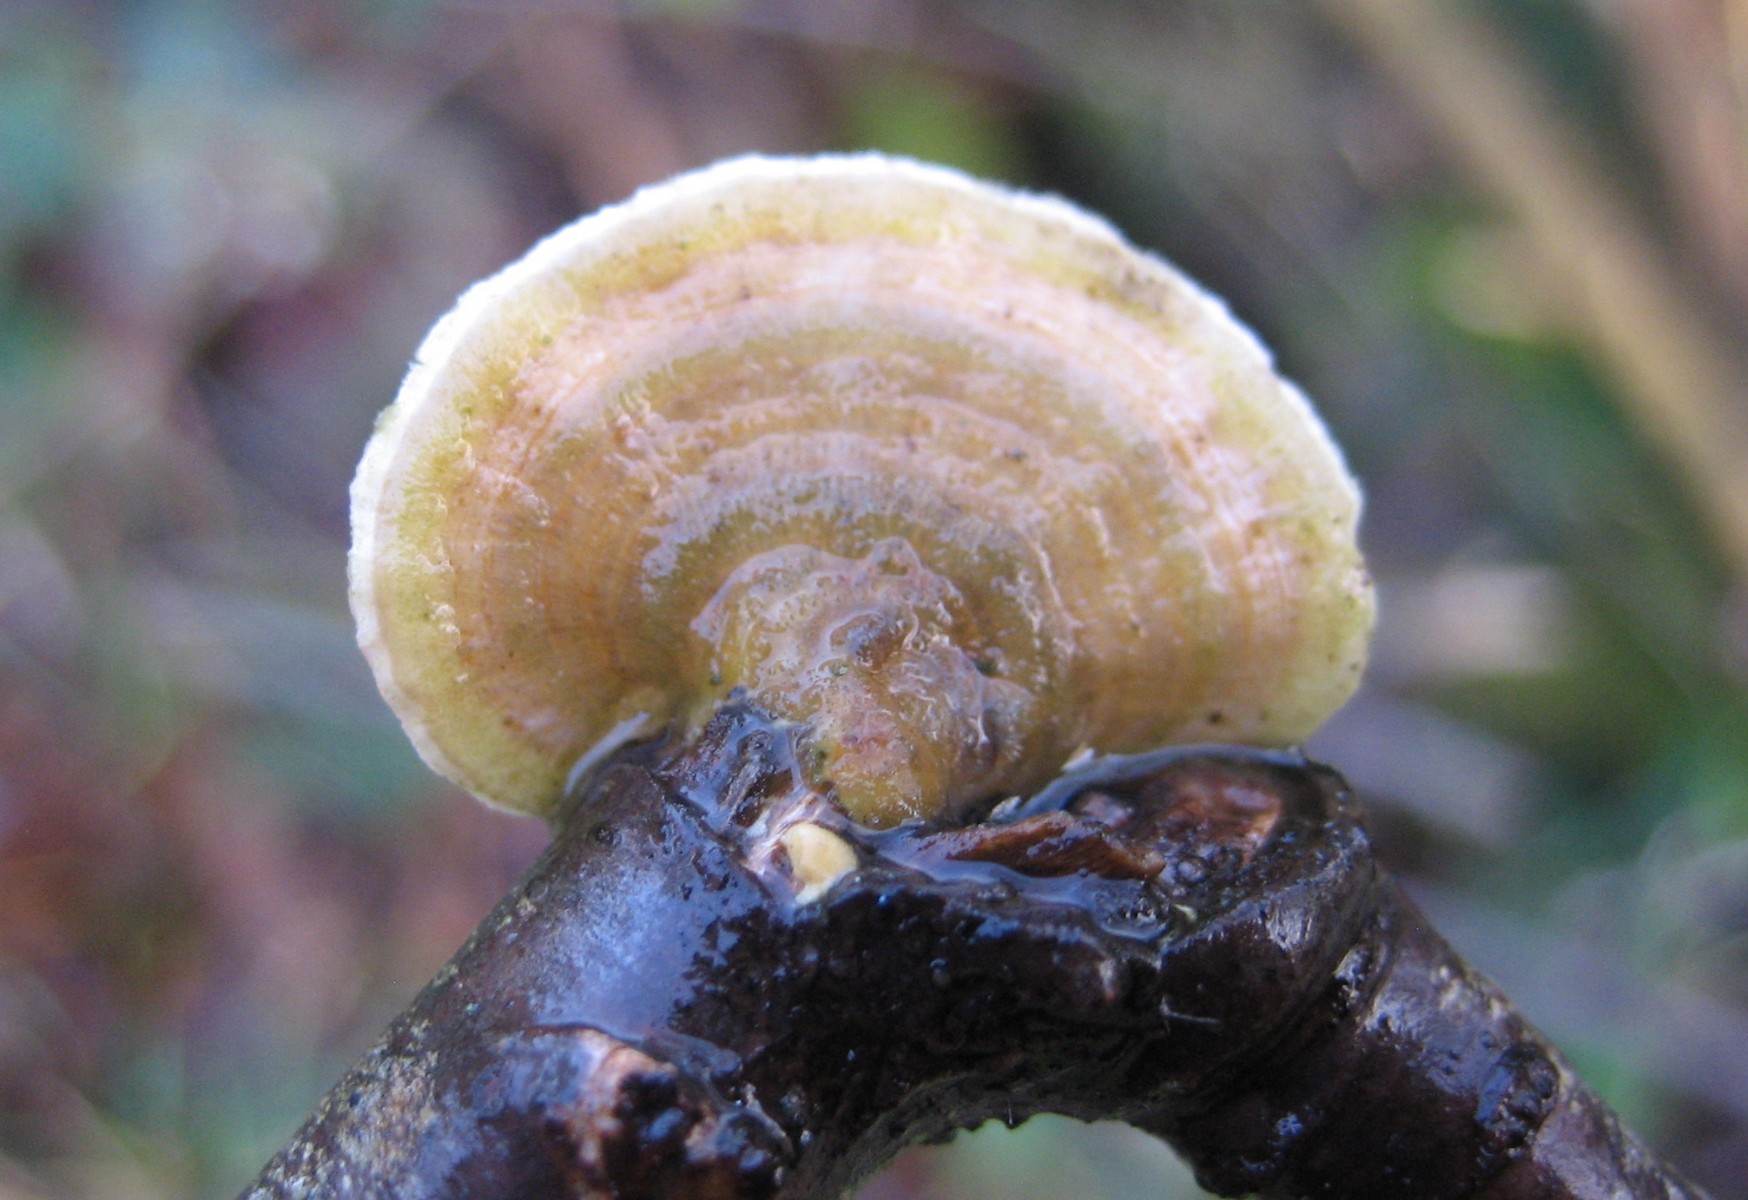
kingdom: Fungi
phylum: Basidiomycota
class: Agaricomycetes
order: Polyporales
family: Polyporaceae
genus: Trametes
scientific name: Trametes versicolor
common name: broget læderporesvamp
